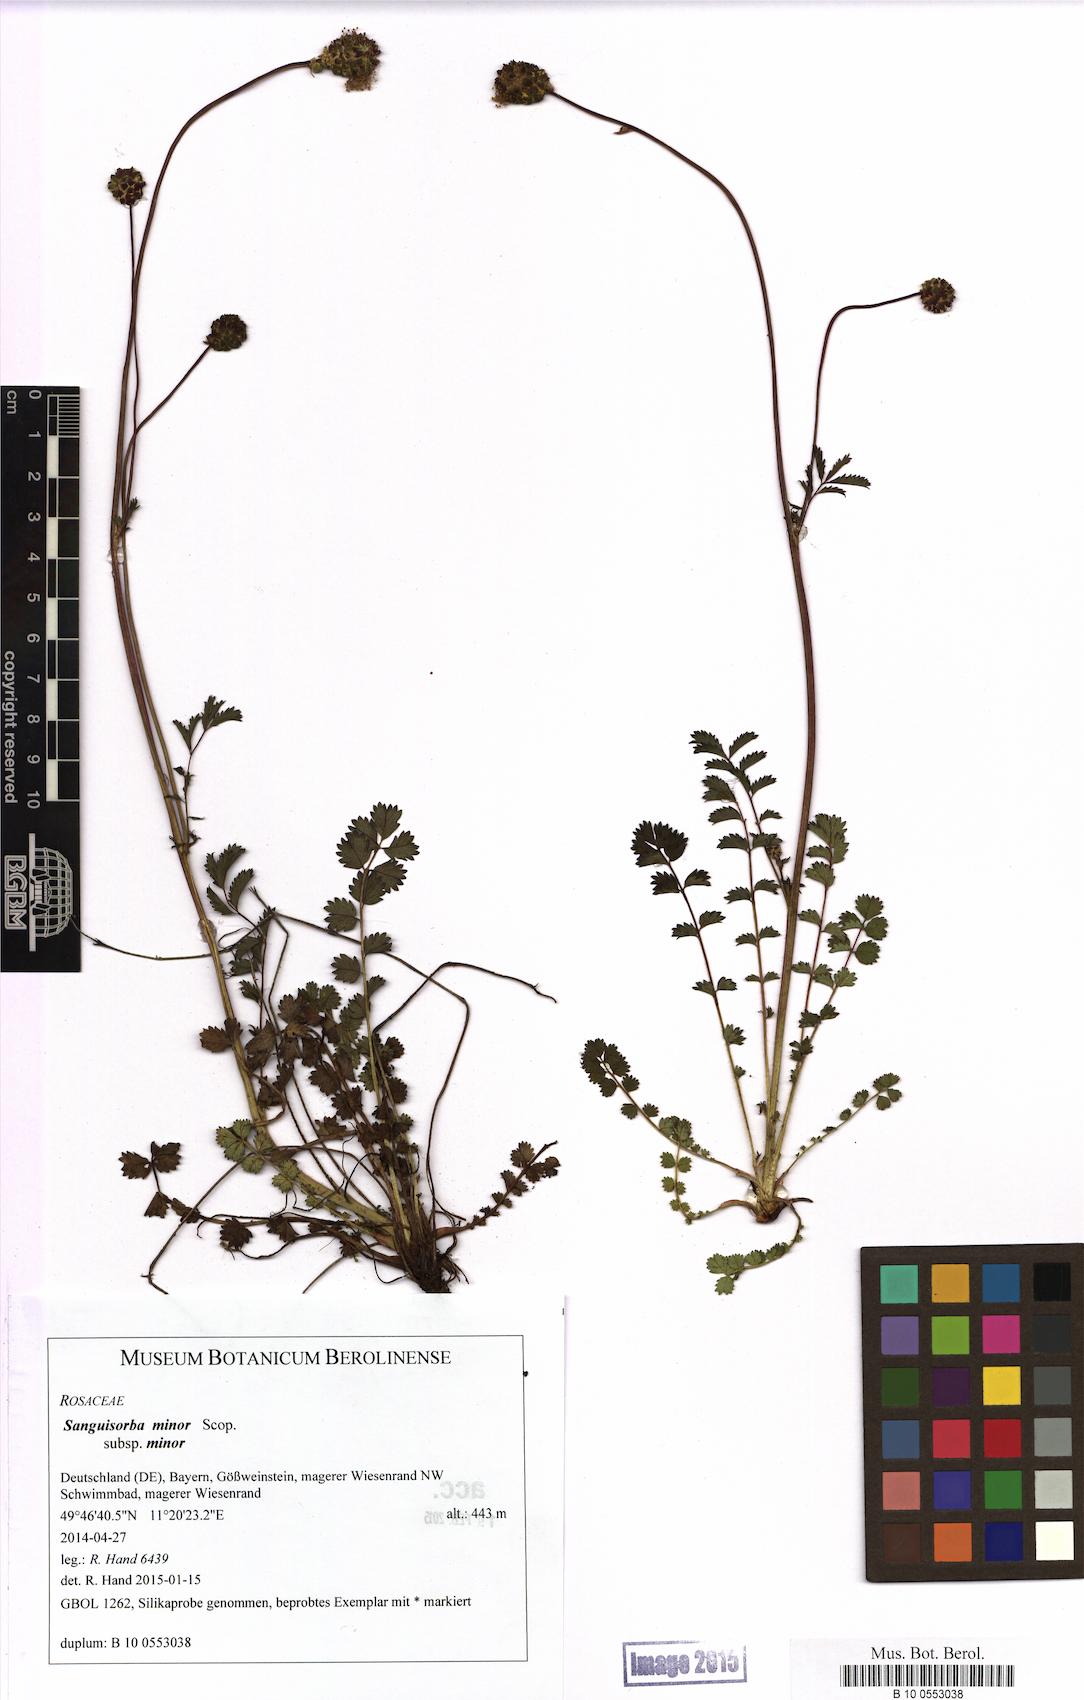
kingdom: Plantae
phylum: Tracheophyta
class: Magnoliopsida
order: Rosales
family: Rosaceae
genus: Poterium
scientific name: Poterium sanguisorba
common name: Salad burnet
